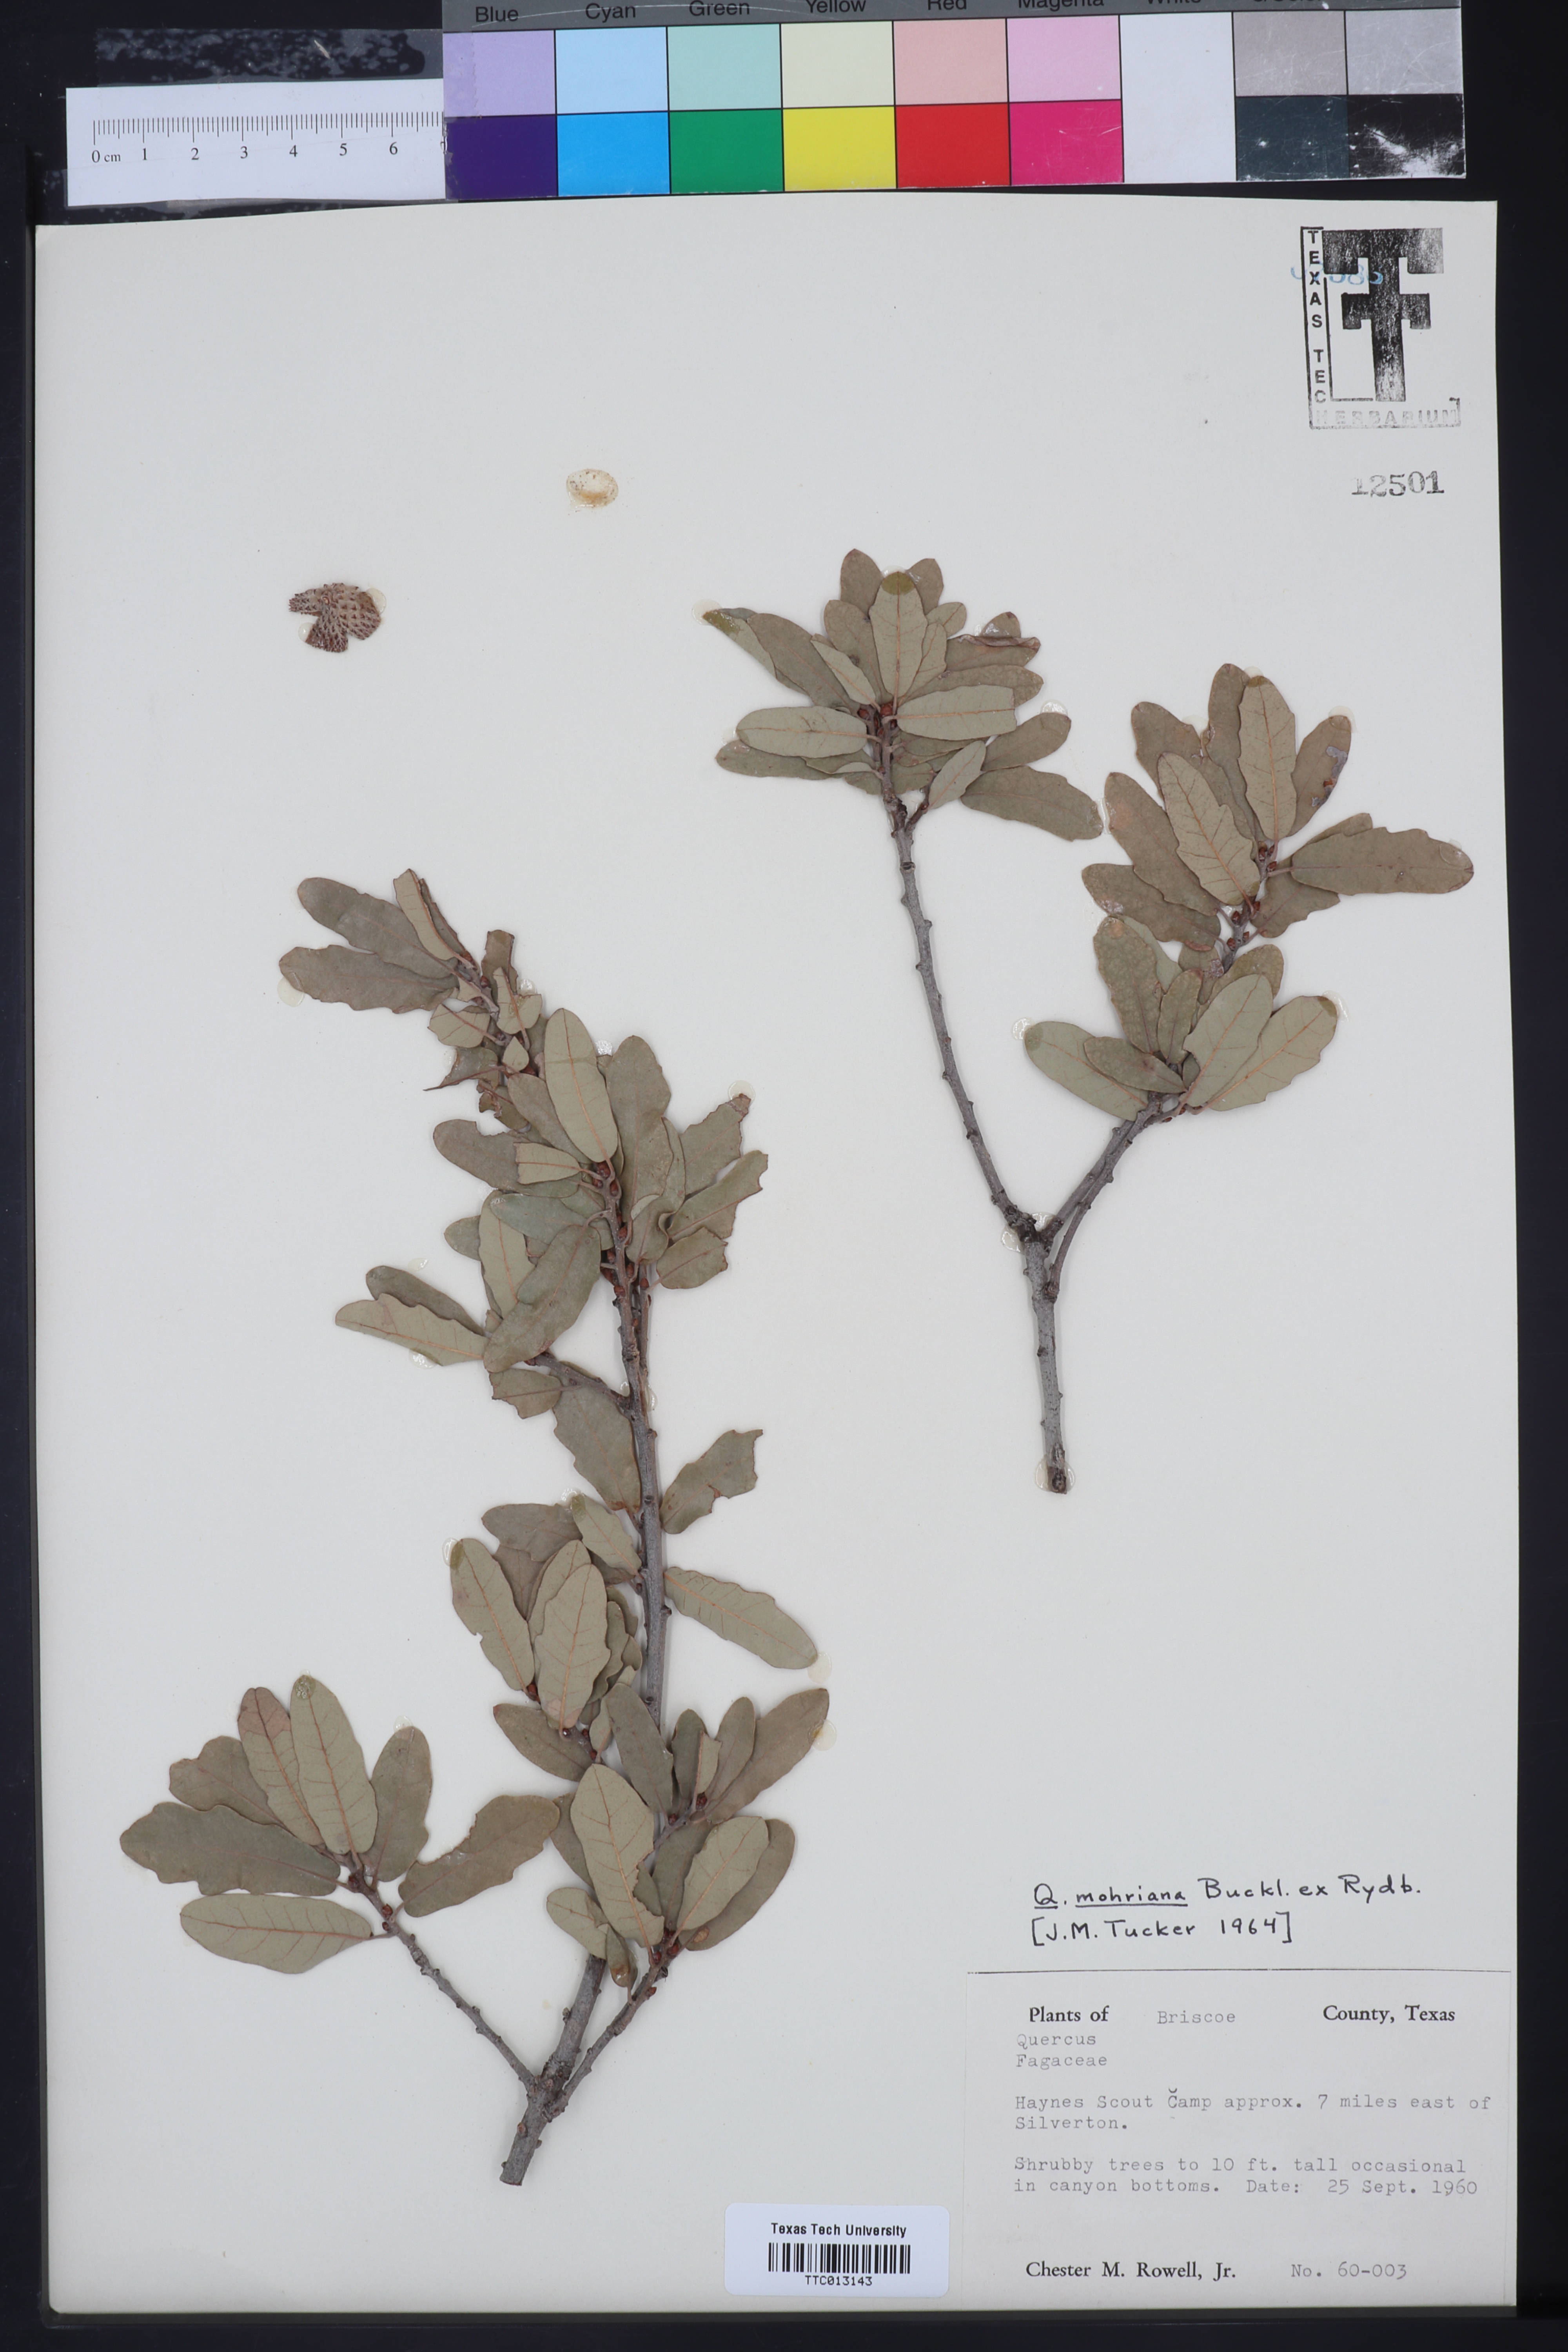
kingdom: Plantae
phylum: Tracheophyta
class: Magnoliopsida
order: Fagales
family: Fagaceae
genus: Quercus
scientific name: Quercus mohriana
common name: Mohr oak
